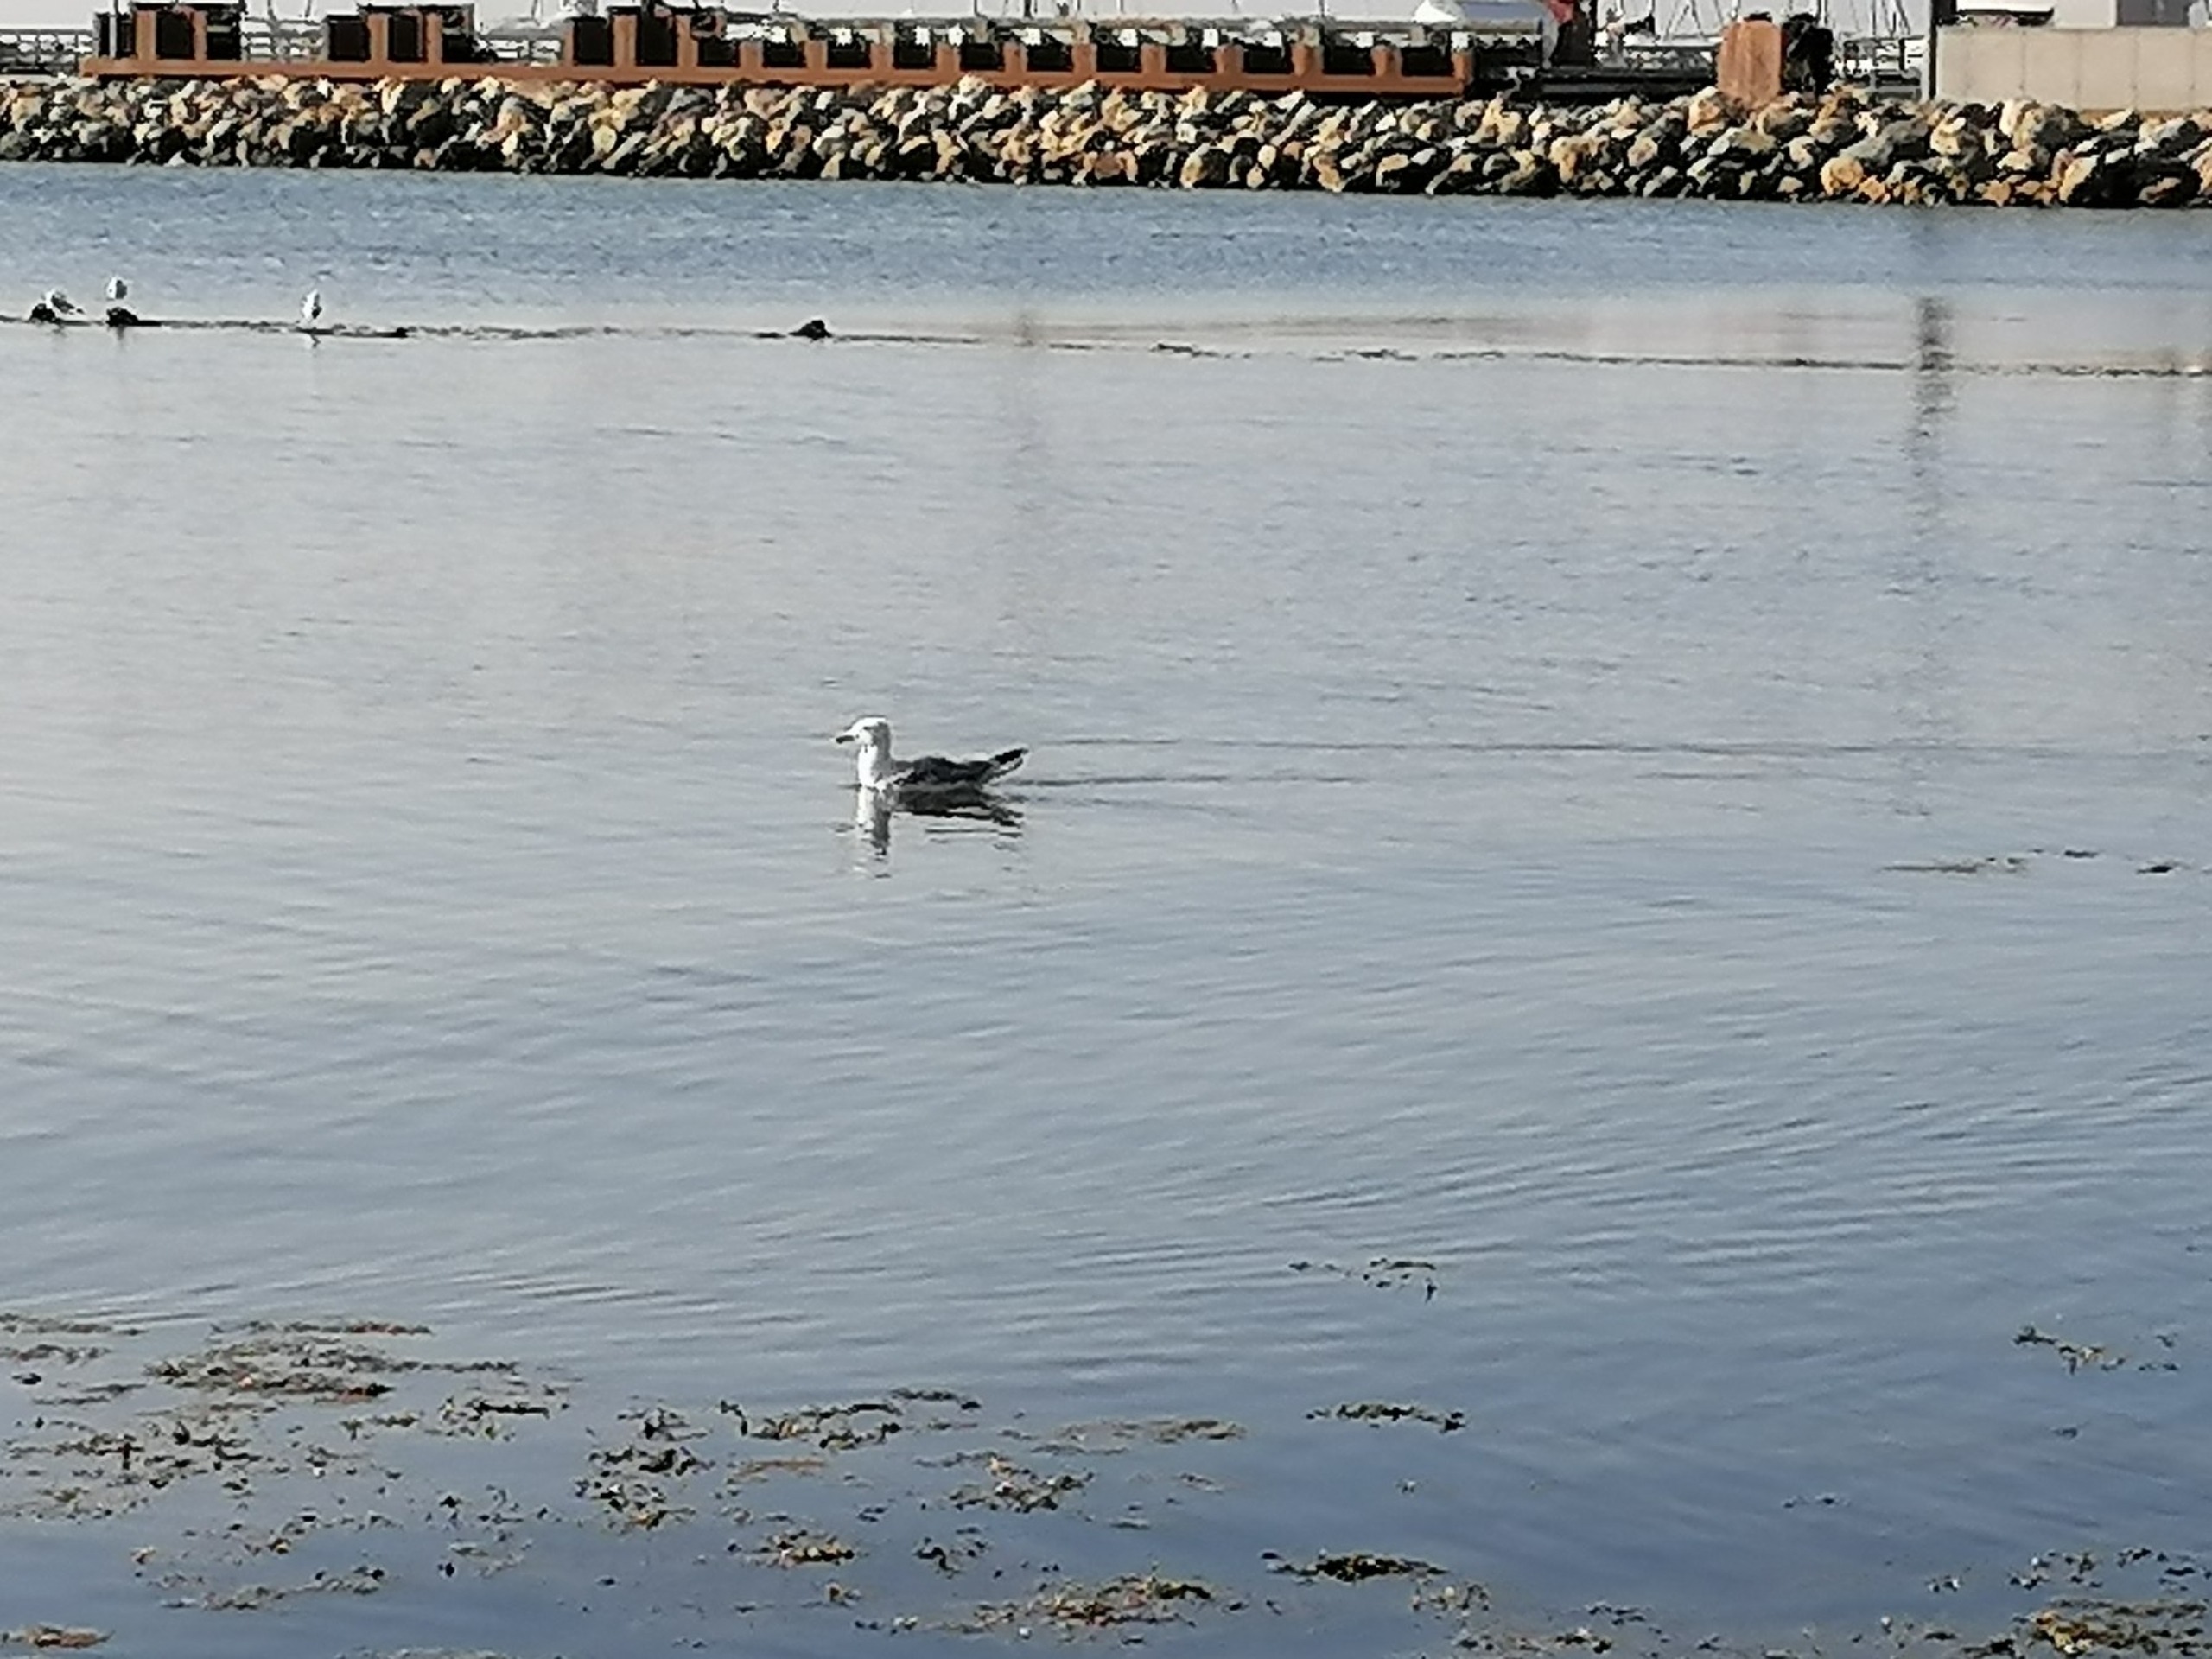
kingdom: Animalia
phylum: Chordata
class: Aves
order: Charadriiformes
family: Laridae
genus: Larus
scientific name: Larus argentatus
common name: Sølvmåge
